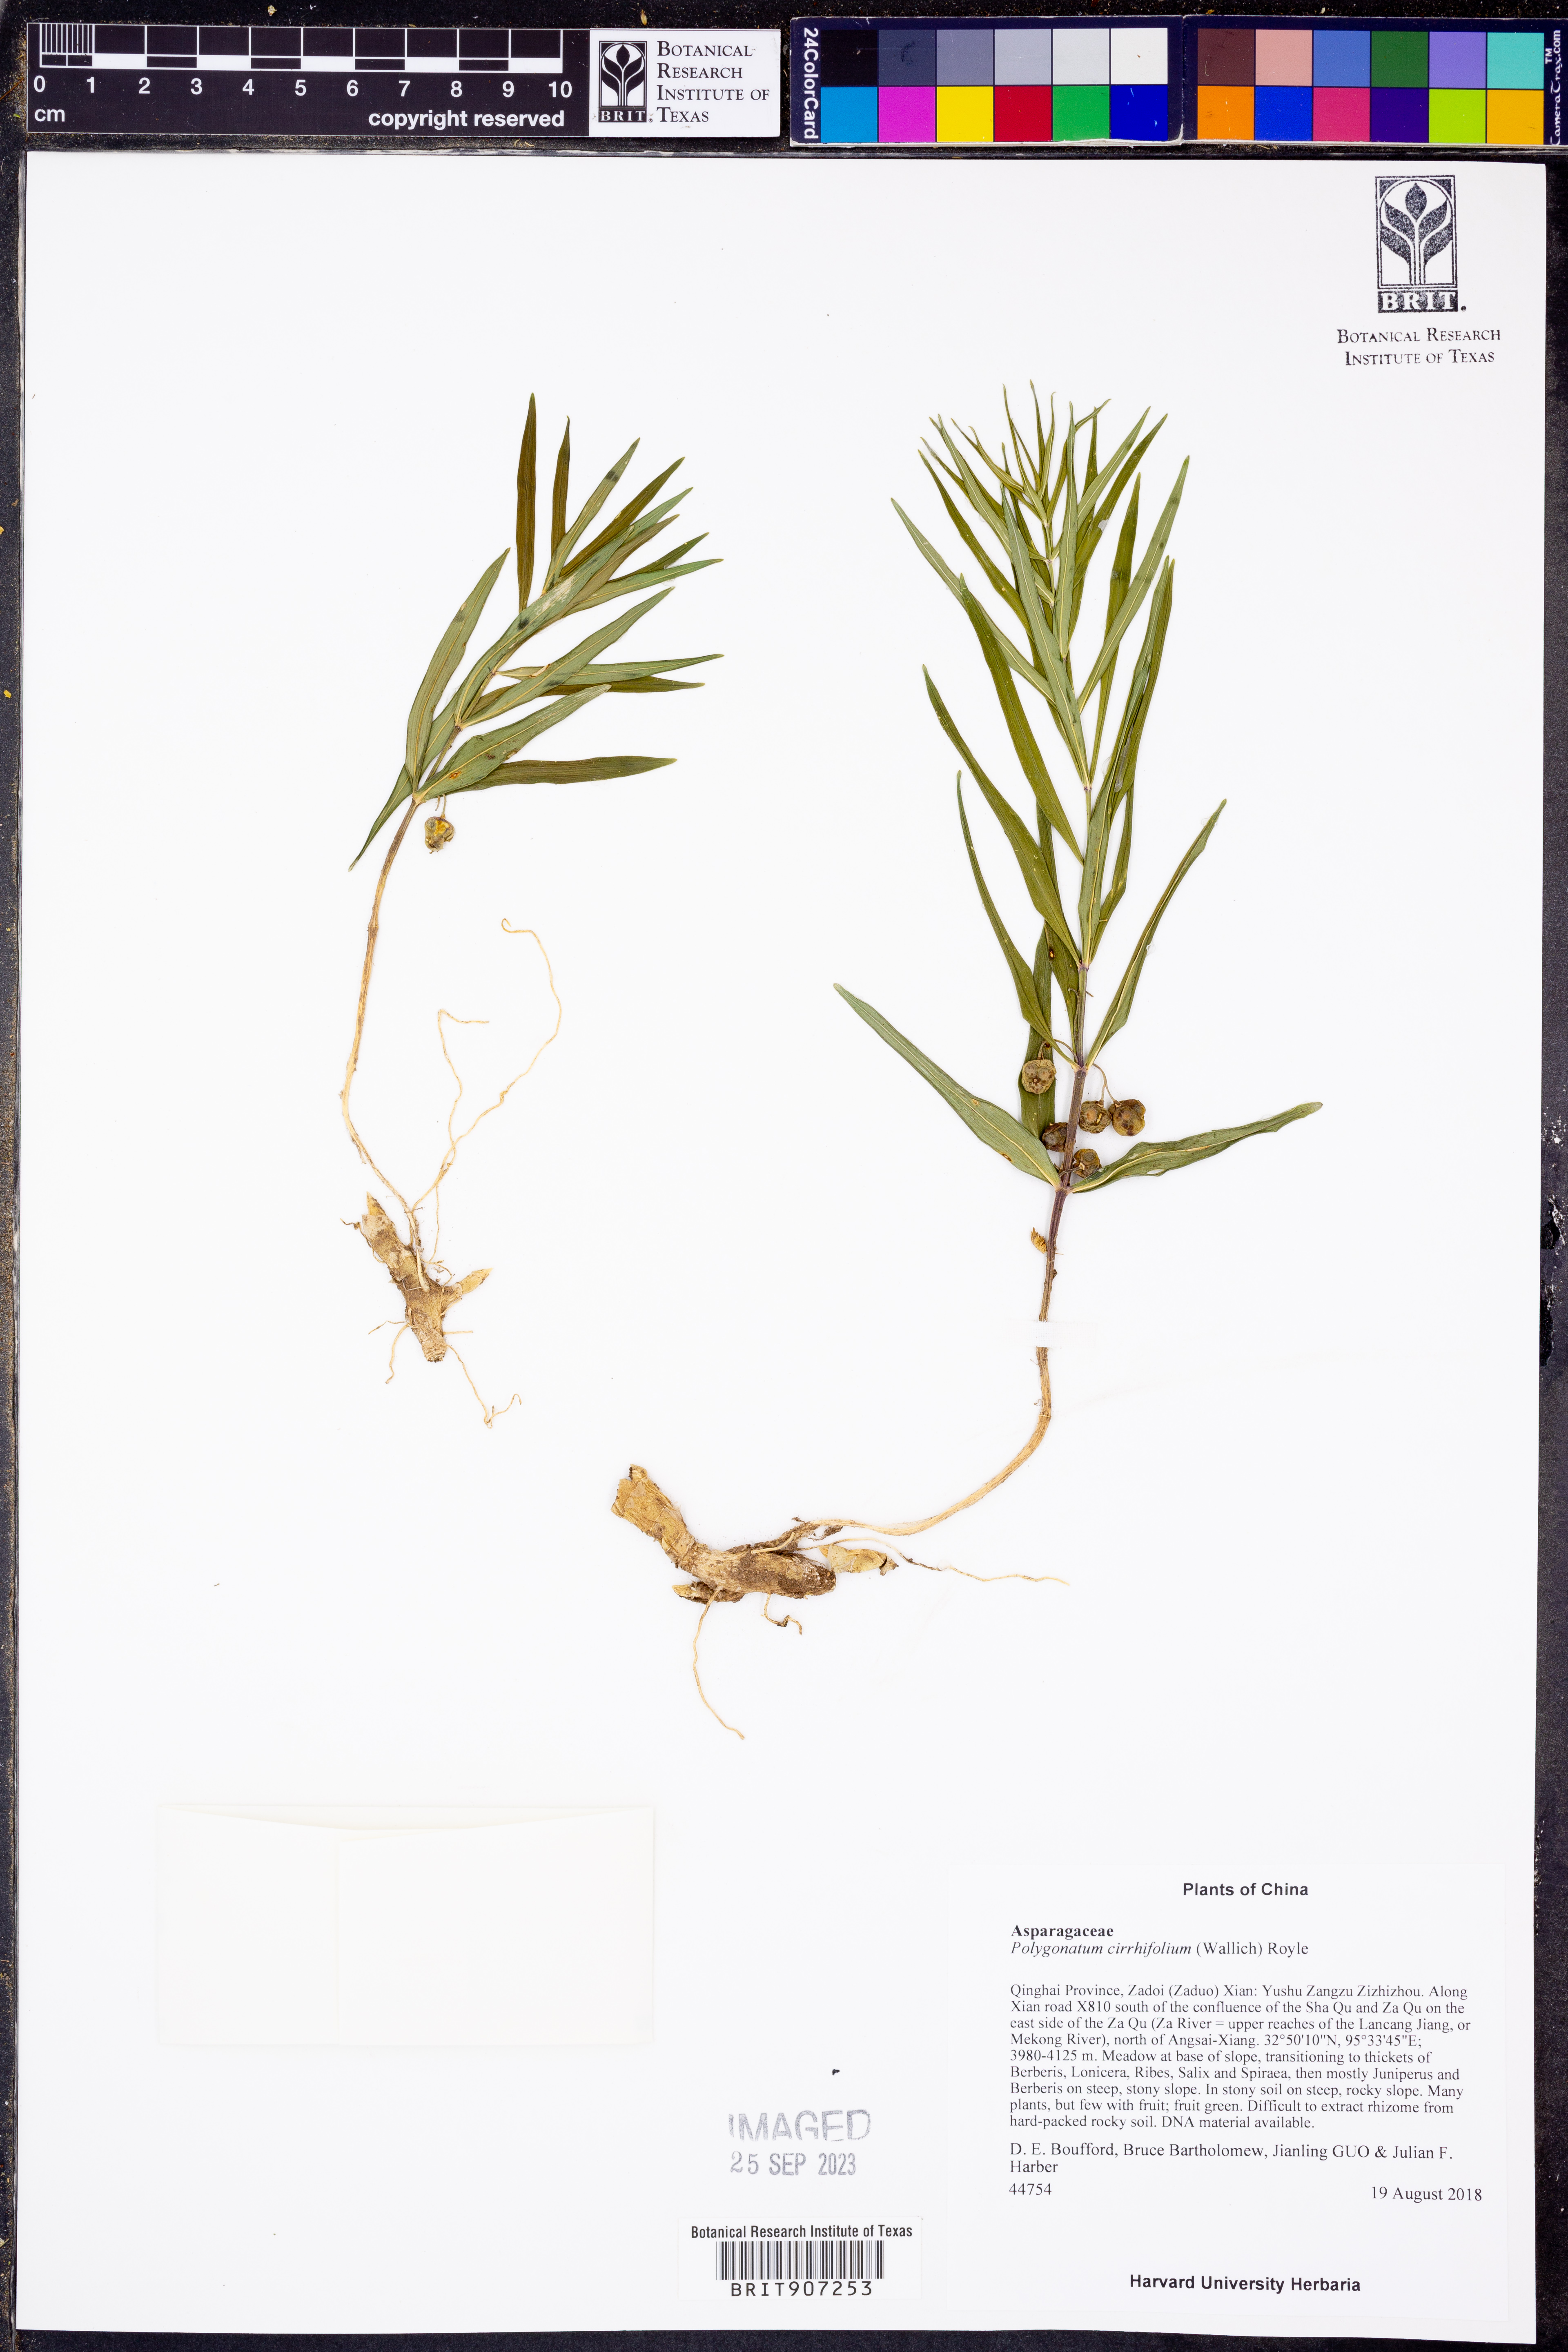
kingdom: Plantae
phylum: Tracheophyta
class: Liliopsida
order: Asparagales
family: Asparagaceae
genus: Polygonatum
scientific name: Polygonatum cirrhifolium
